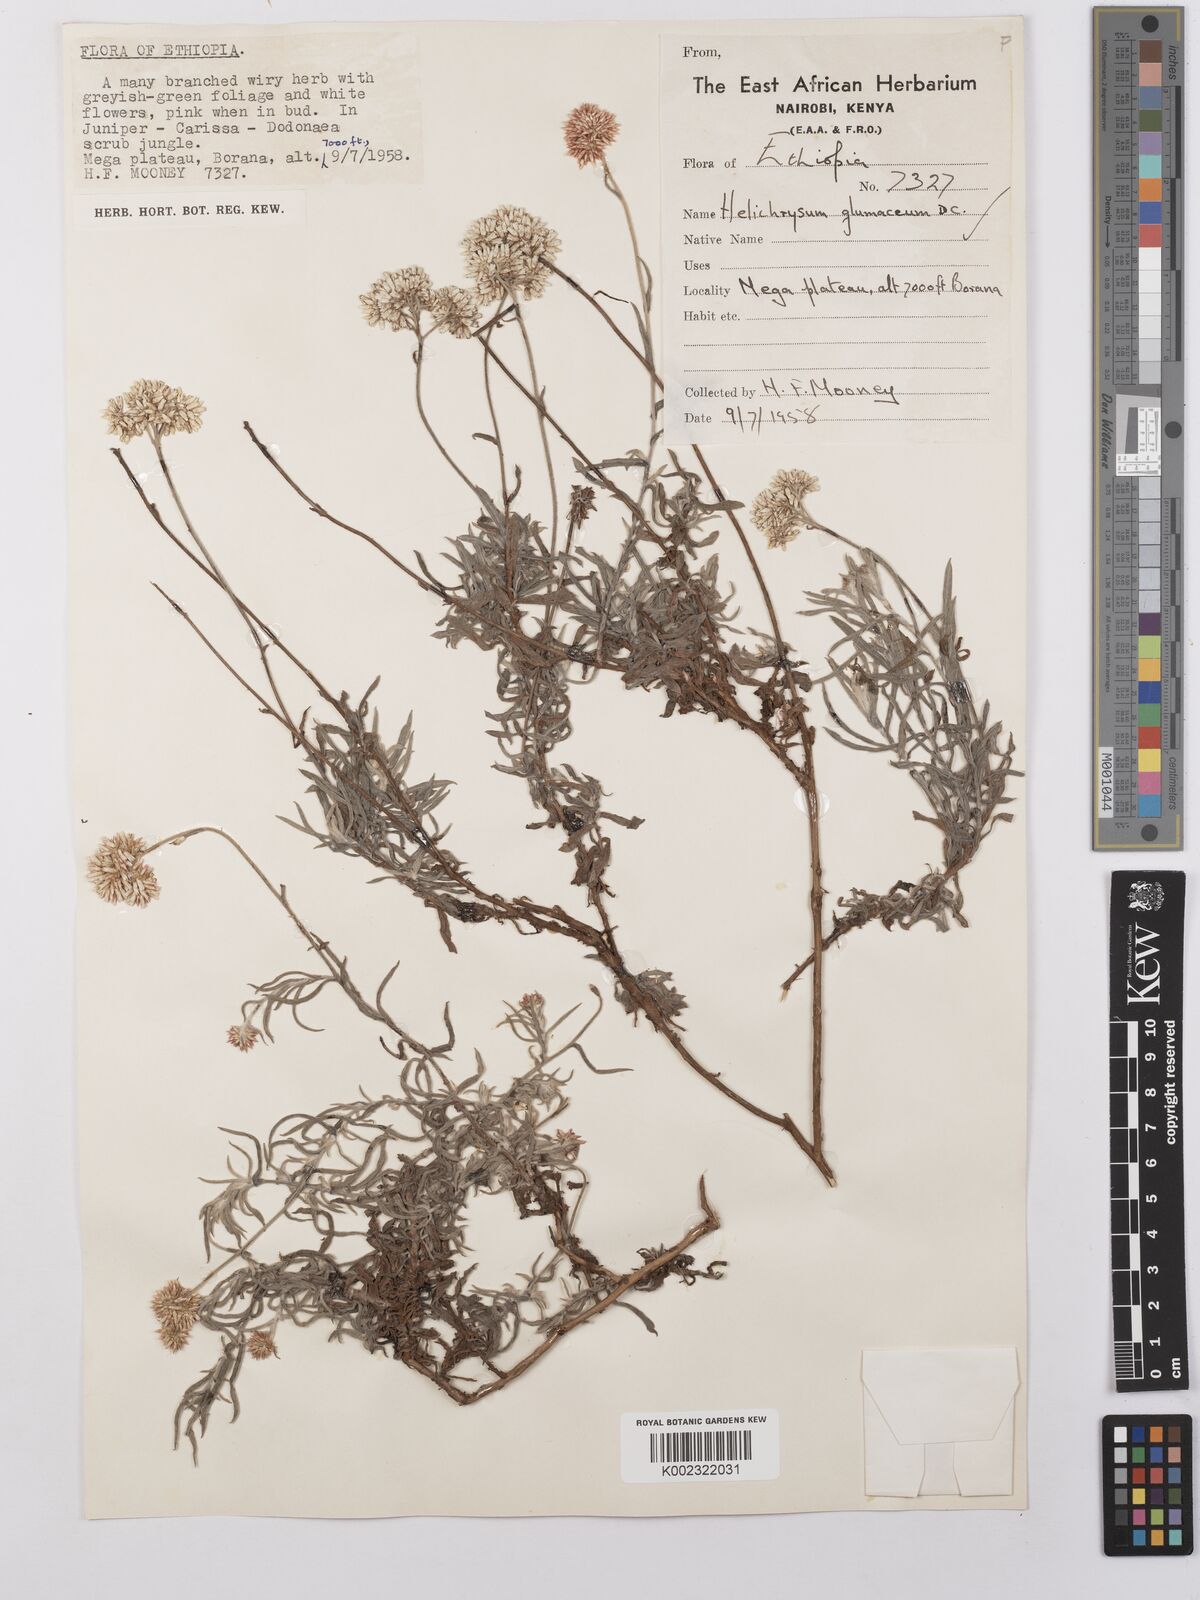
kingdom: Plantae
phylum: Tracheophyta
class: Magnoliopsida
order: Asterales
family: Asteraceae
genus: Helichrysum
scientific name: Helichrysum glumaceum
